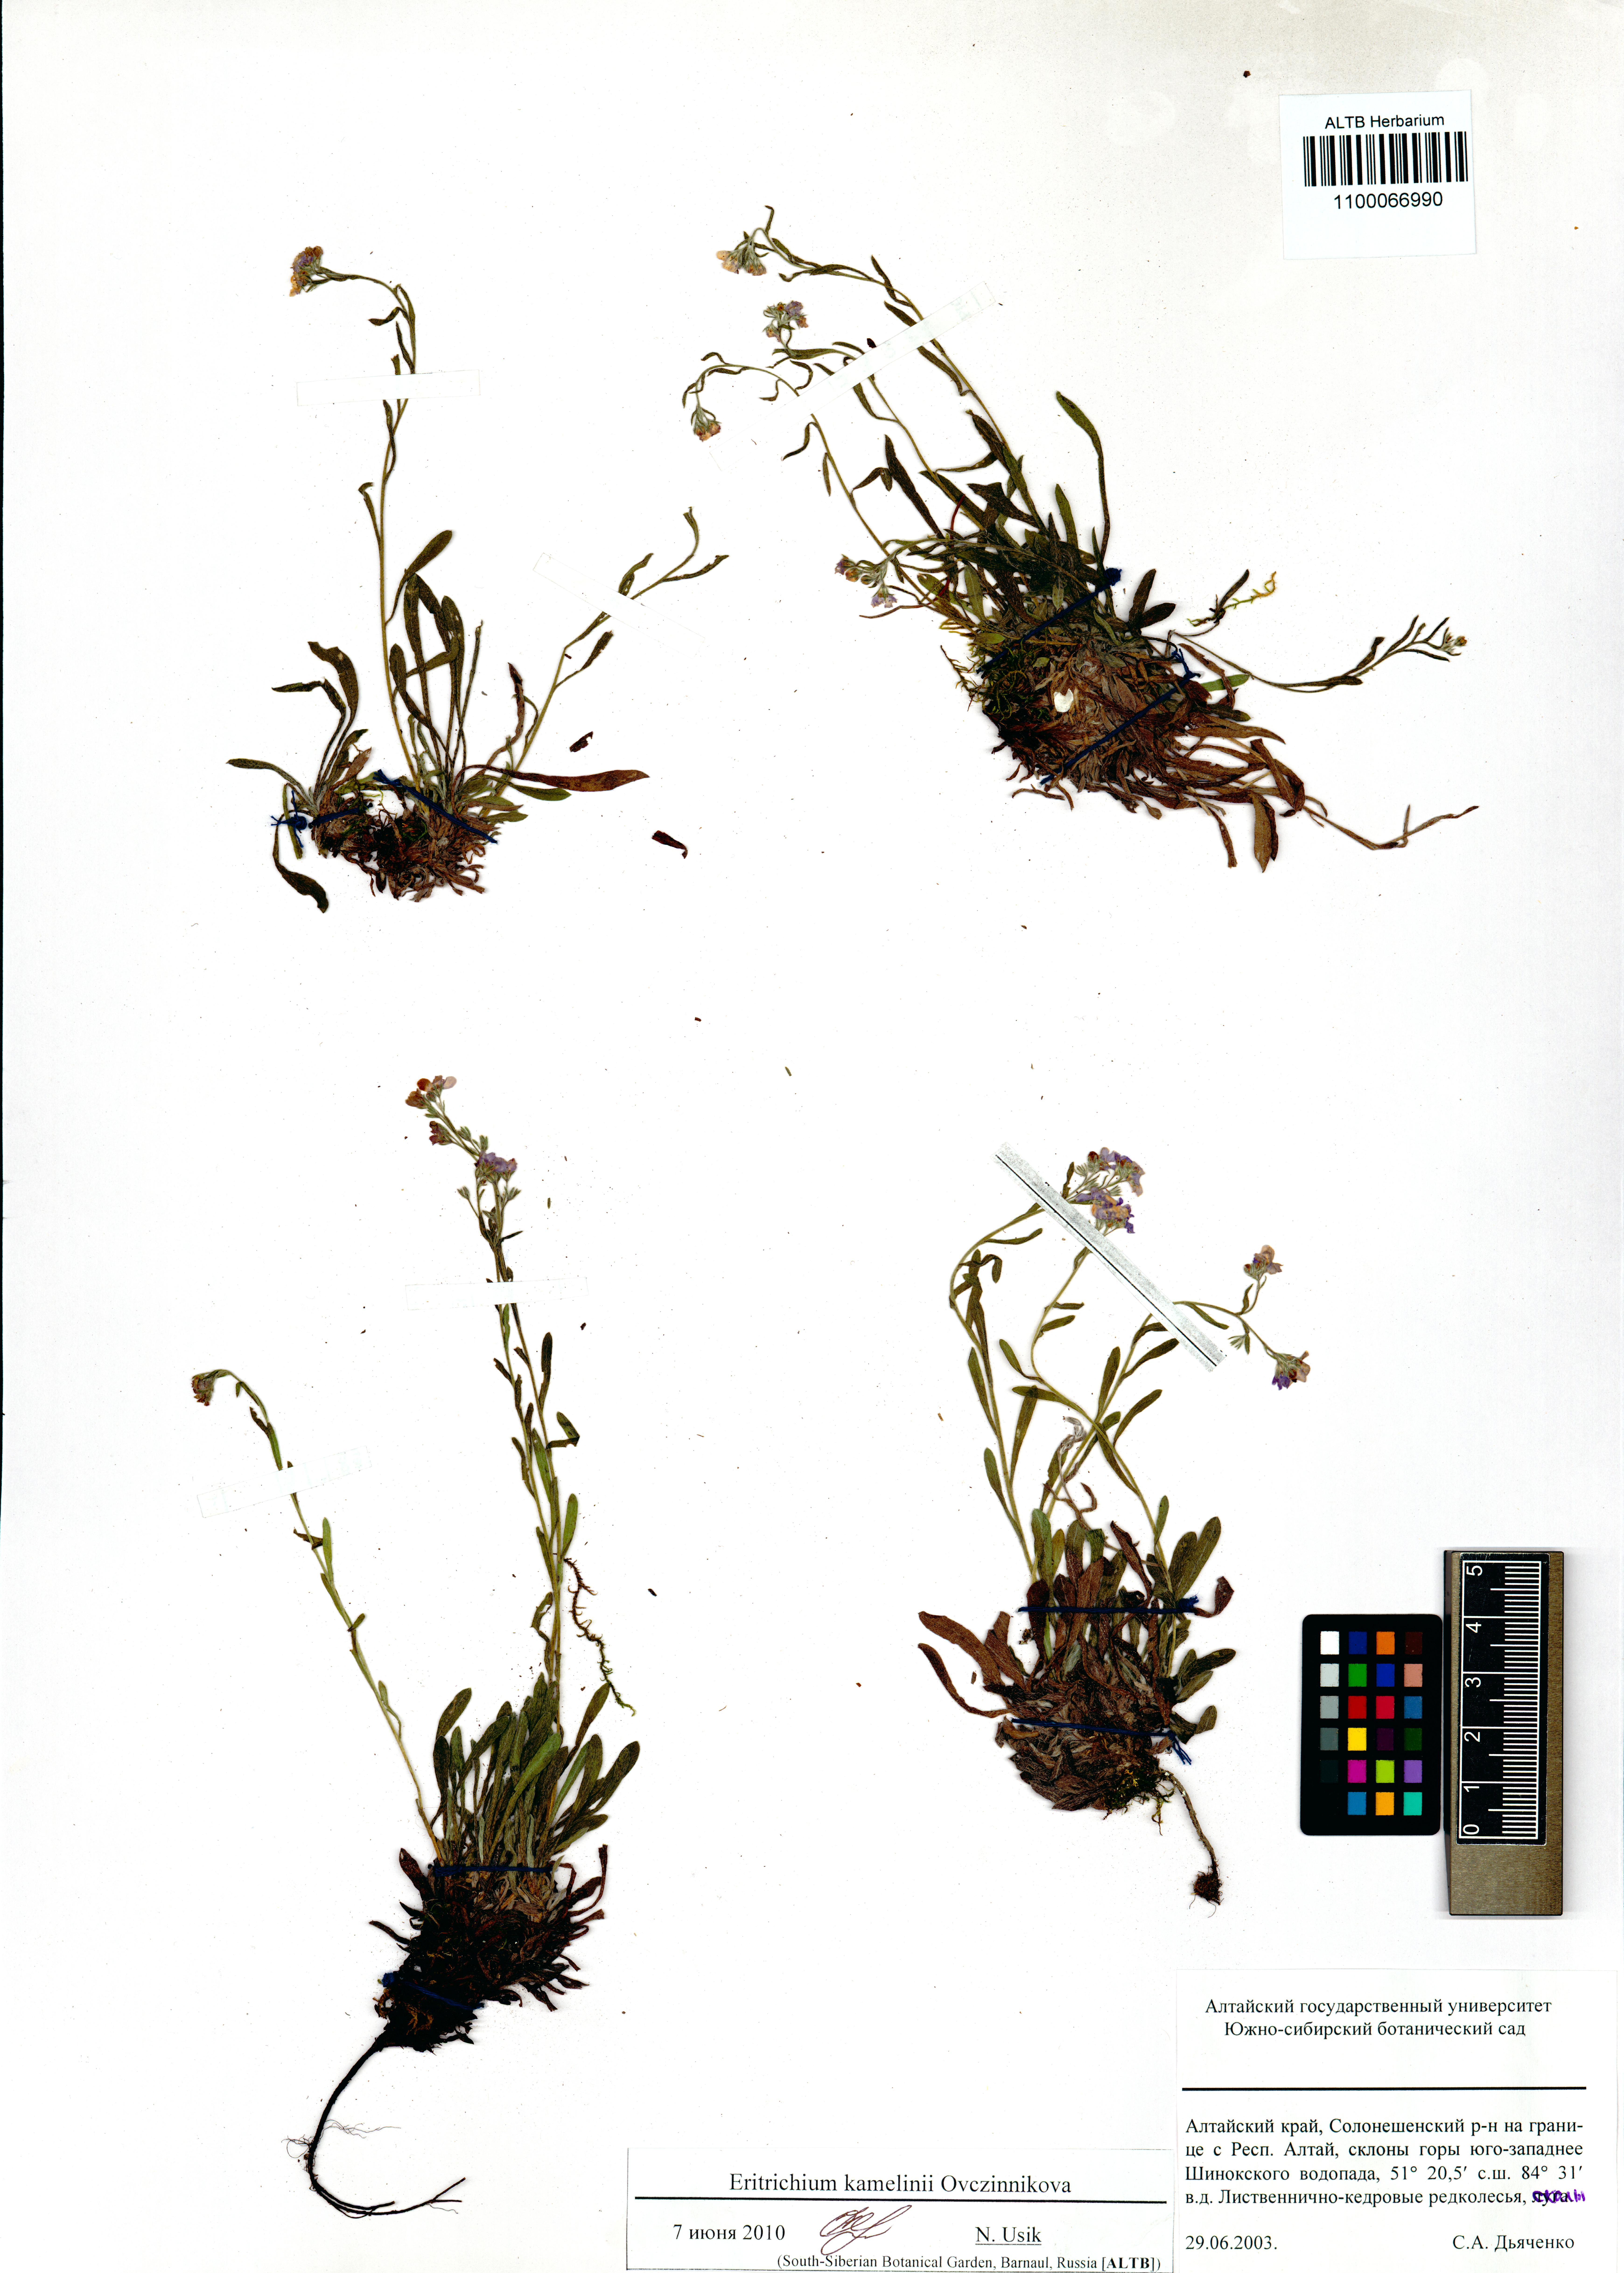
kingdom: Plantae
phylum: Tracheophyta
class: Magnoliopsida
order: Boraginales
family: Boraginaceae
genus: Eritrichium
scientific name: Eritrichium kamelinii
